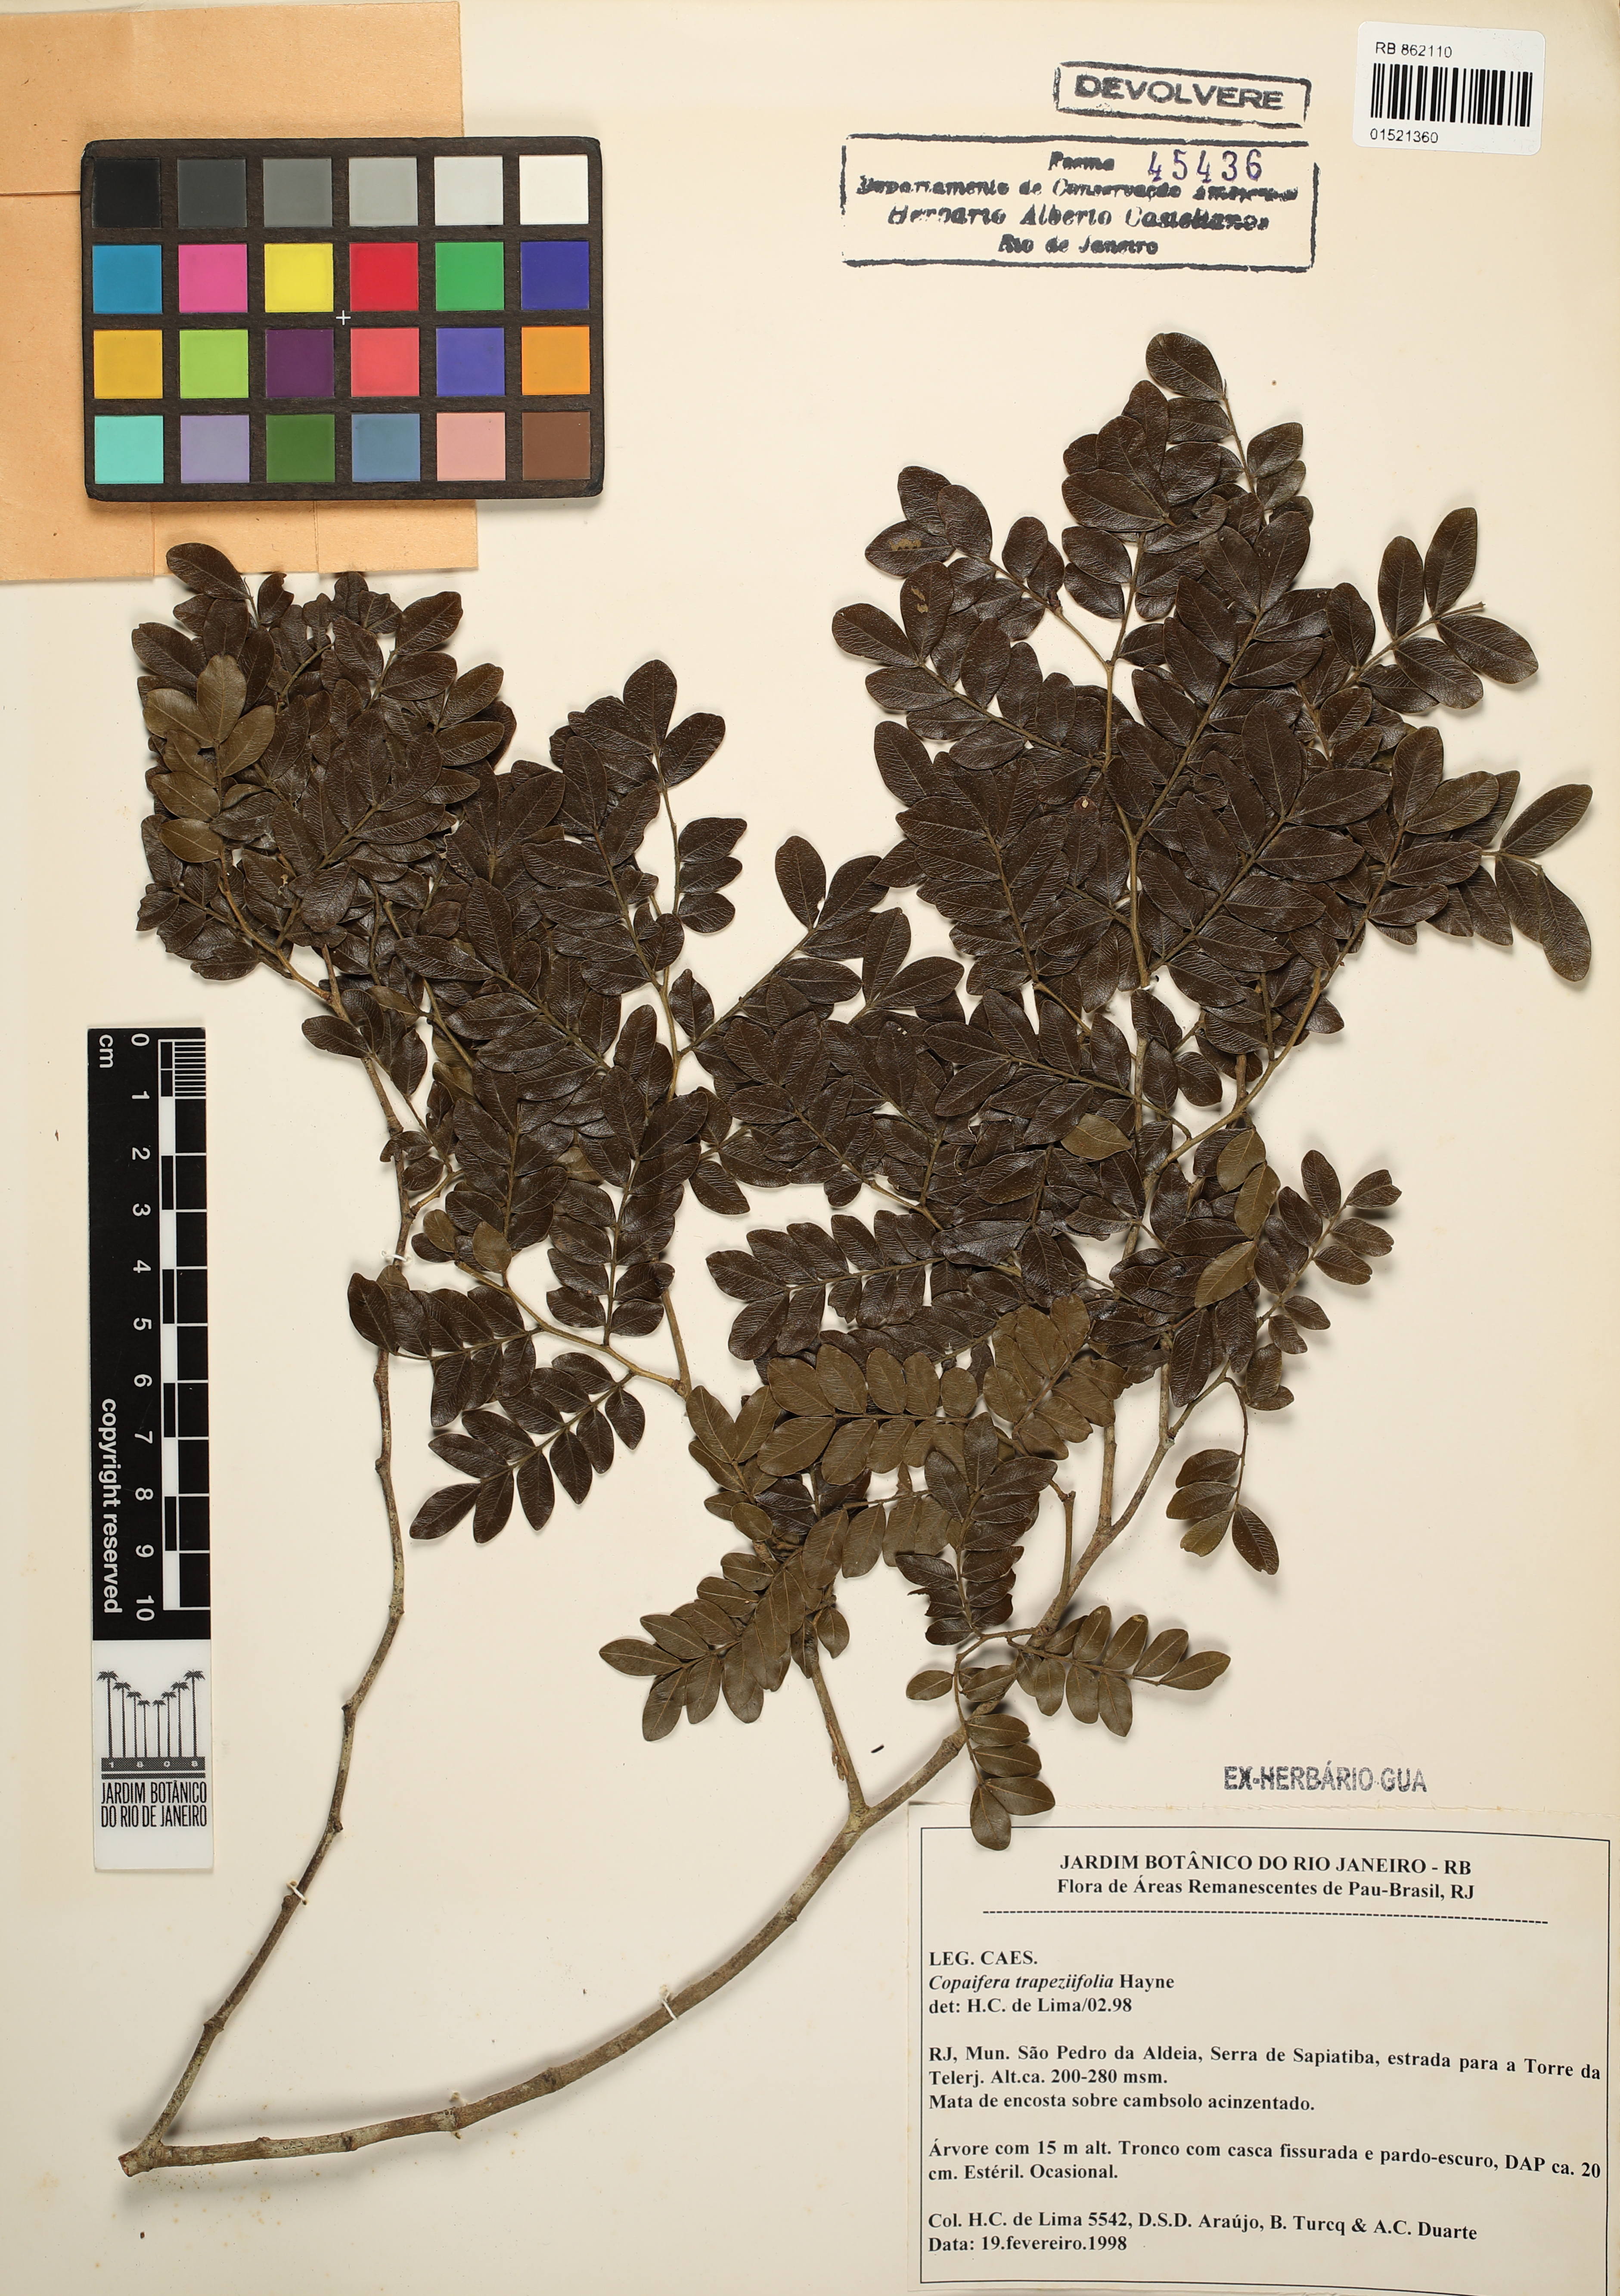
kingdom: Plantae
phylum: Tracheophyta
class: Magnoliopsida
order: Fabales
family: Fabaceae
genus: Copaifera
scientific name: Copaifera trapezifolia
